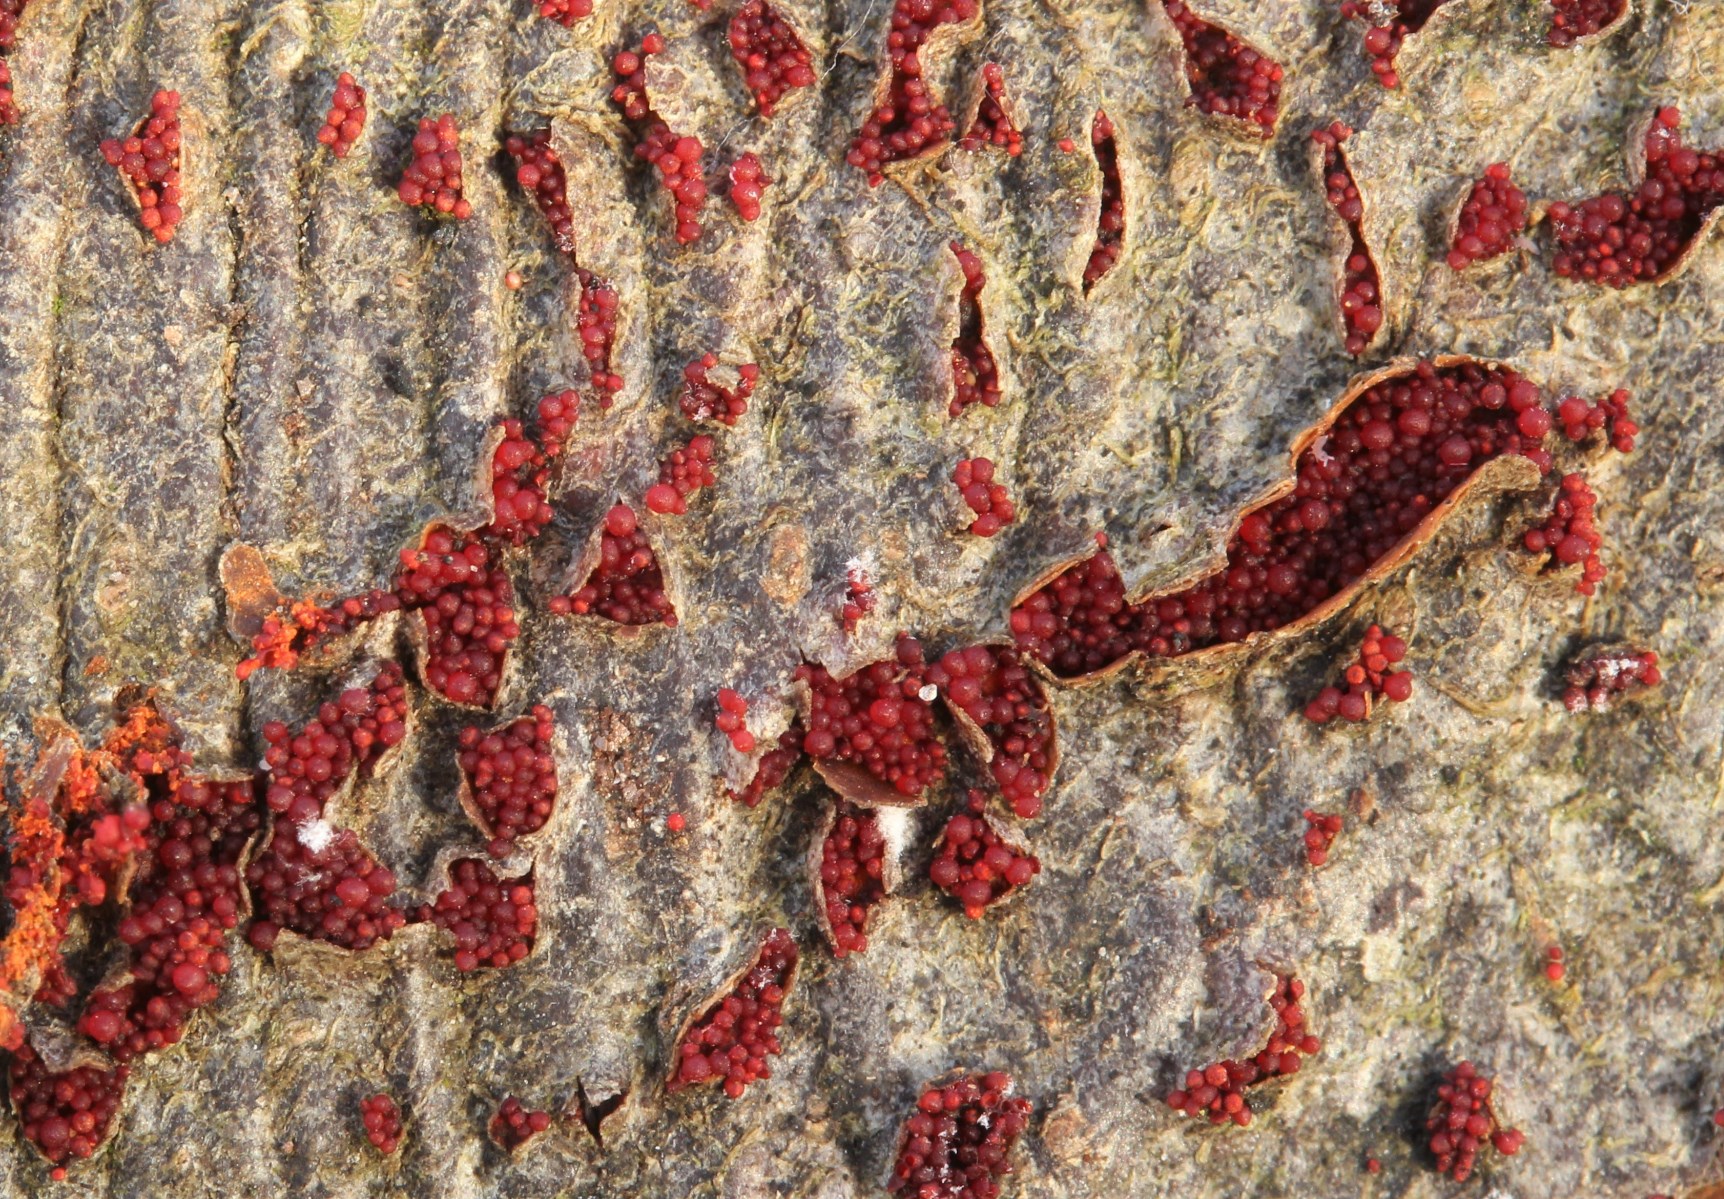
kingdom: Fungi
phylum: Ascomycota
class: Sordariomycetes
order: Hypocreales
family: Nectriaceae
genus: Neonectria
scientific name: Neonectria coccinea
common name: bøgebark-cinnobersvamp
